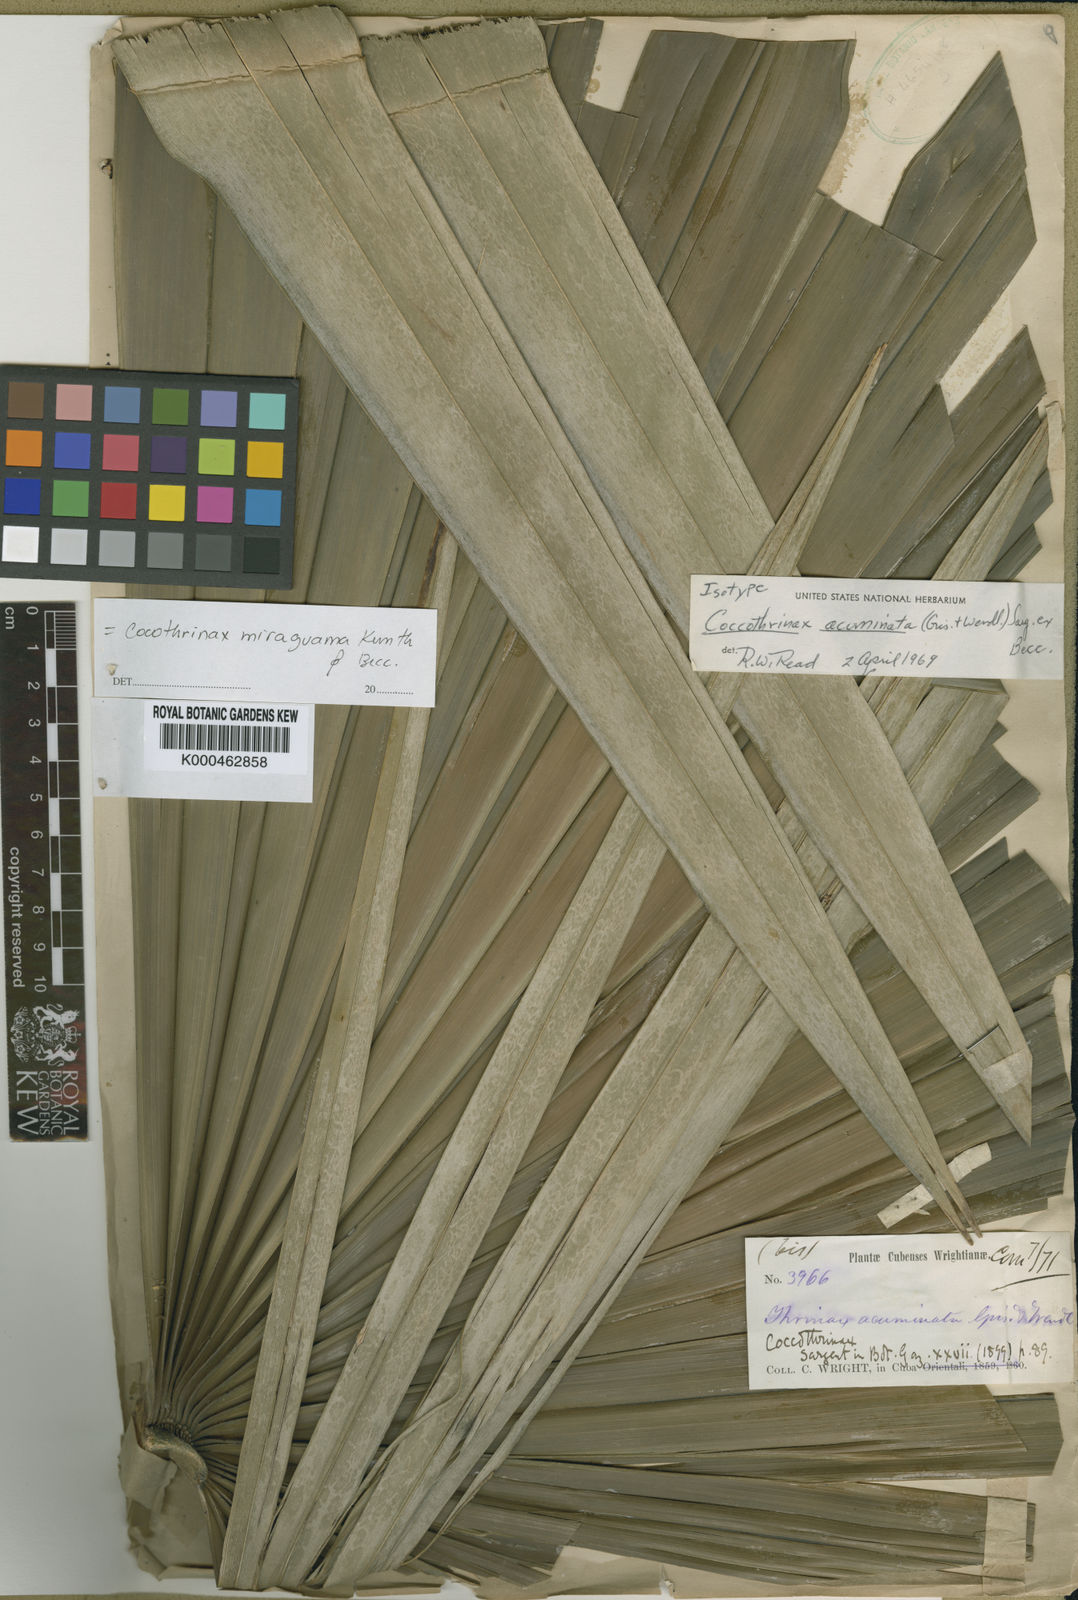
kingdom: Plantae
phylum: Tracheophyta
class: Liliopsida
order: Arecales
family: Arecaceae
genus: Coccothrinax
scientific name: Coccothrinax miraguama
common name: Miragua palm
